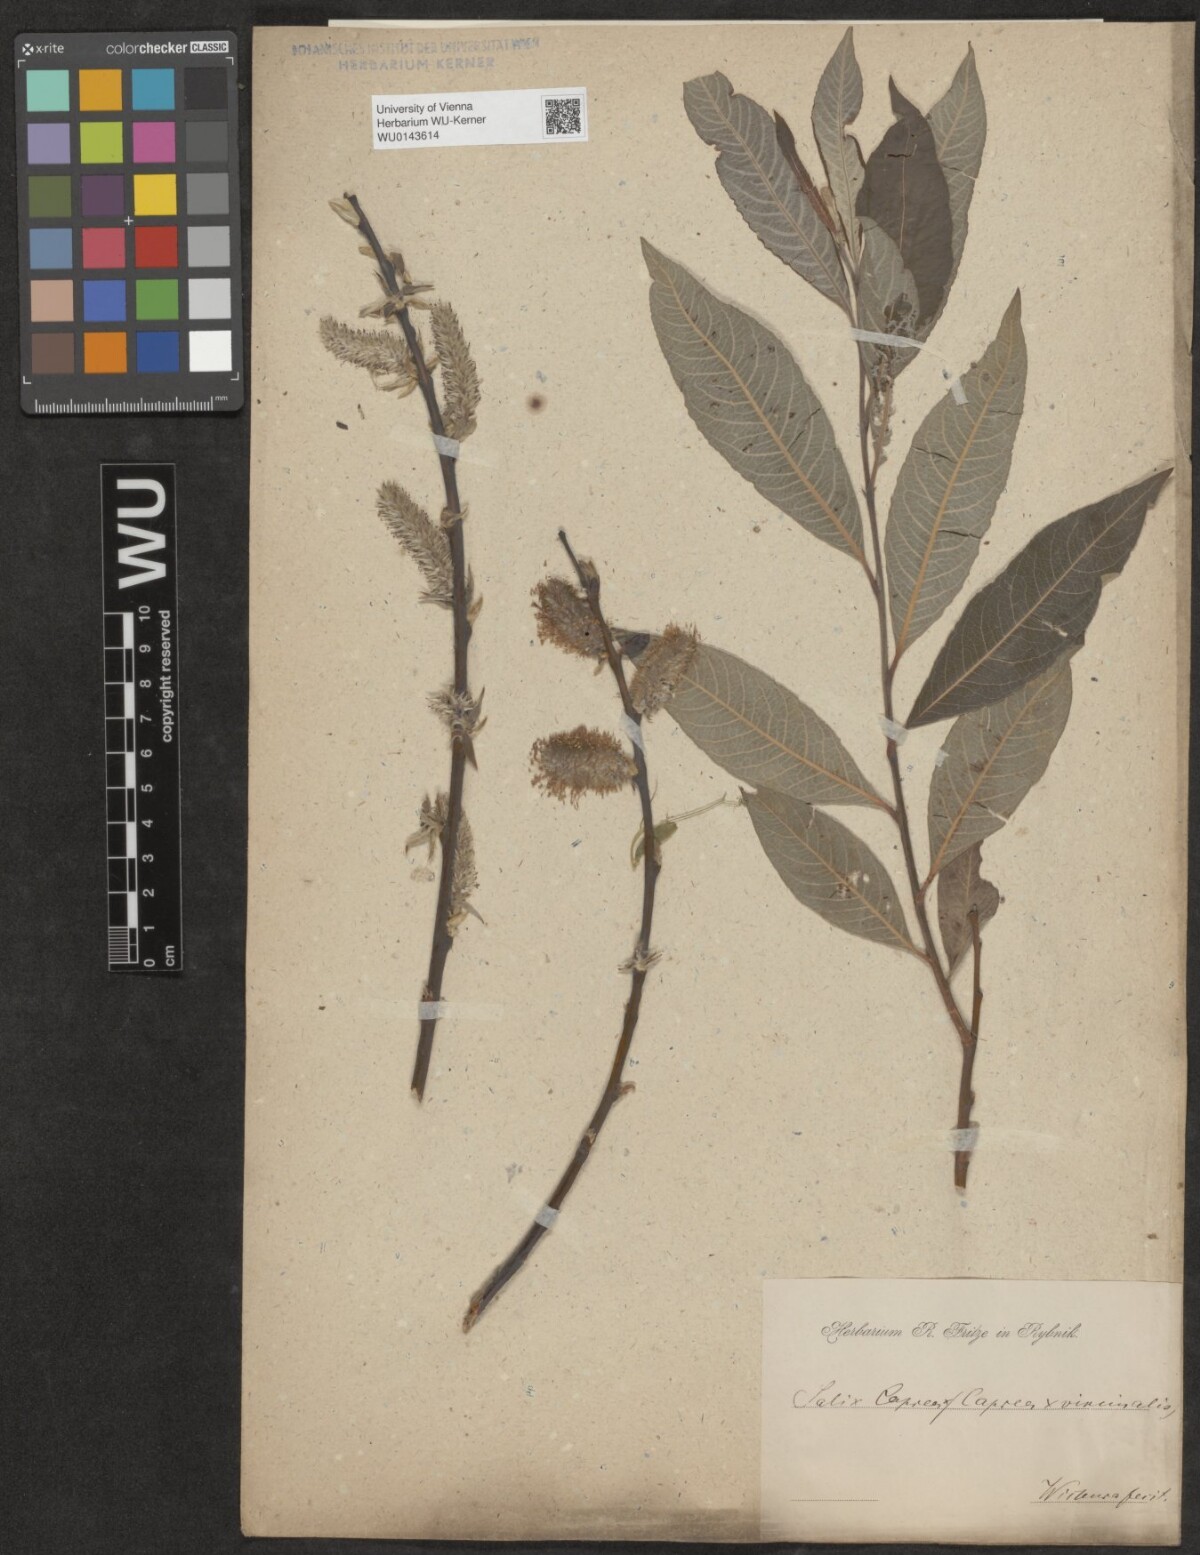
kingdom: Plantae
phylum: Tracheophyta
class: Magnoliopsida
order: Malpighiales
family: Salicaceae
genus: Salix
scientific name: Salix
